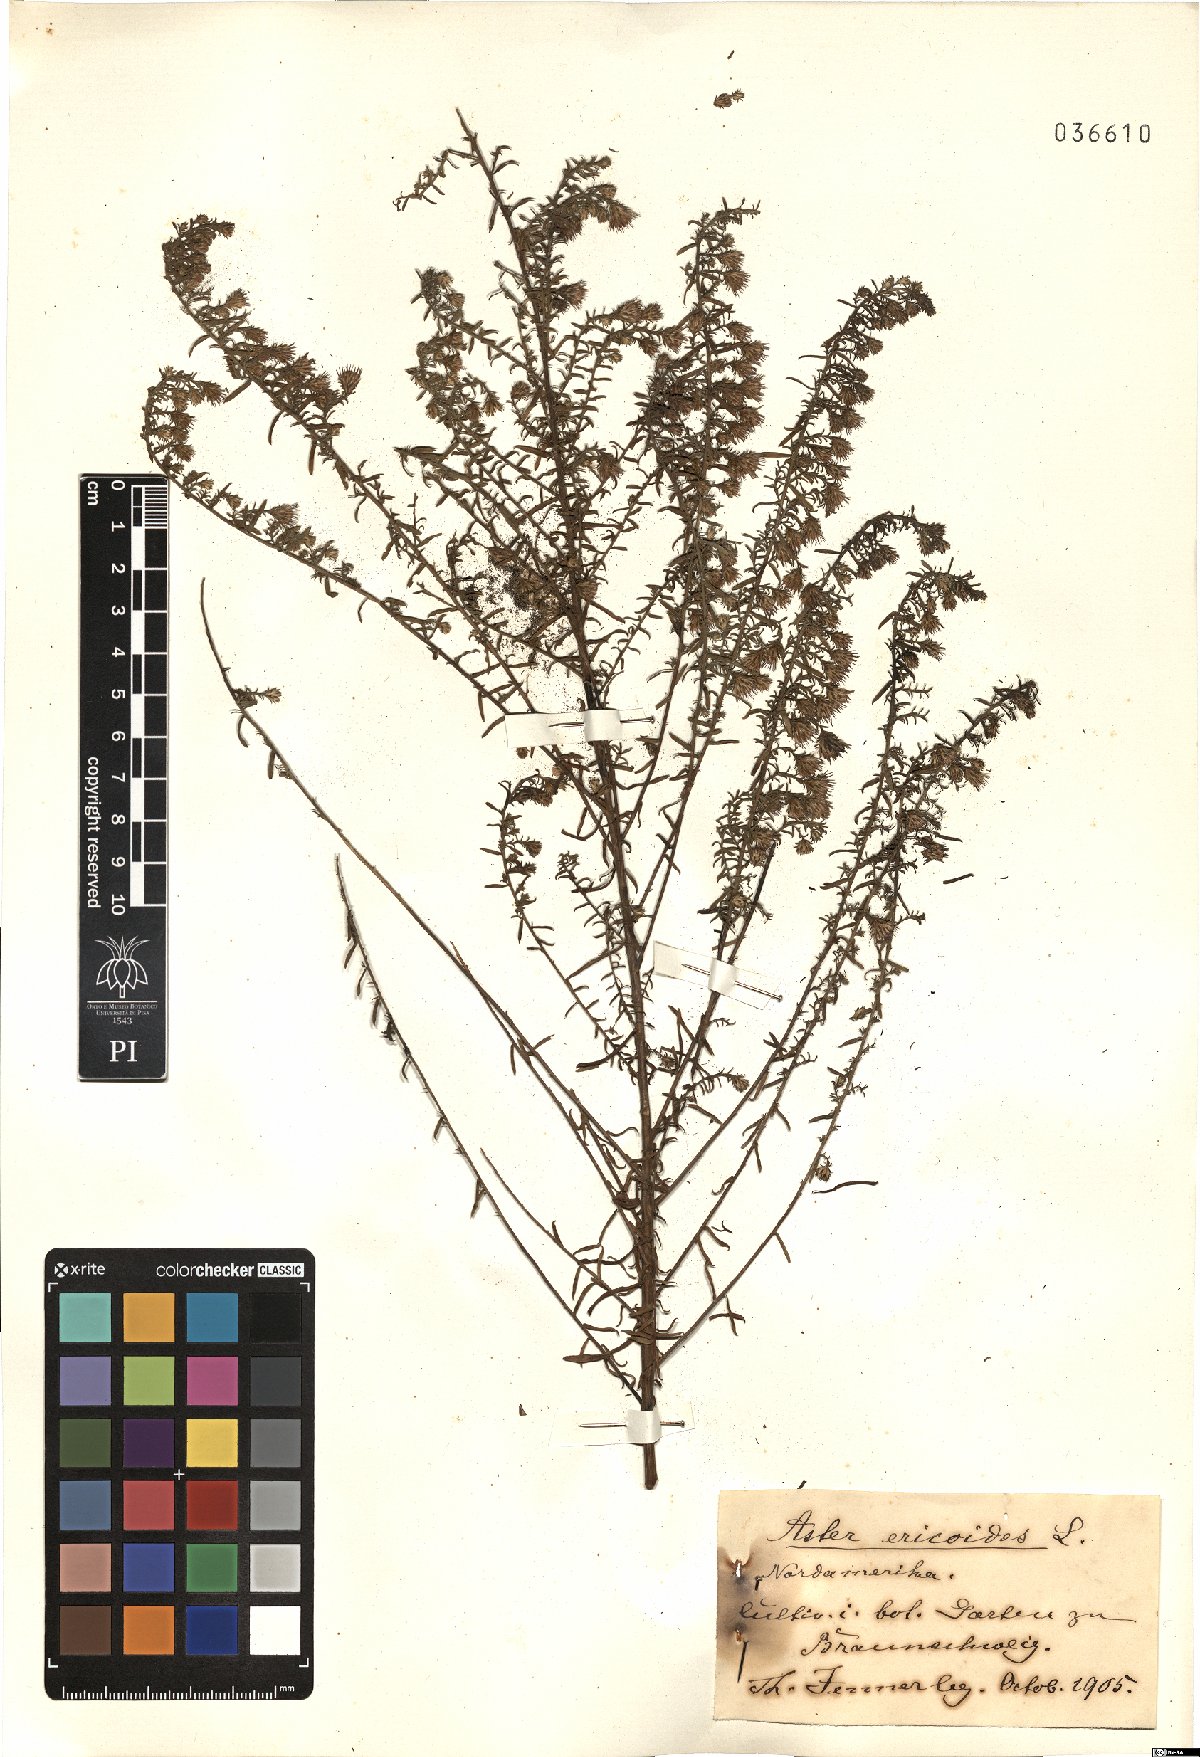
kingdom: Plantae
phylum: Tracheophyta
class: Magnoliopsida
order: Asterales
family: Asteraceae
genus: Symphyotrichum
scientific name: Symphyotrichum ericoides
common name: Heath aster
